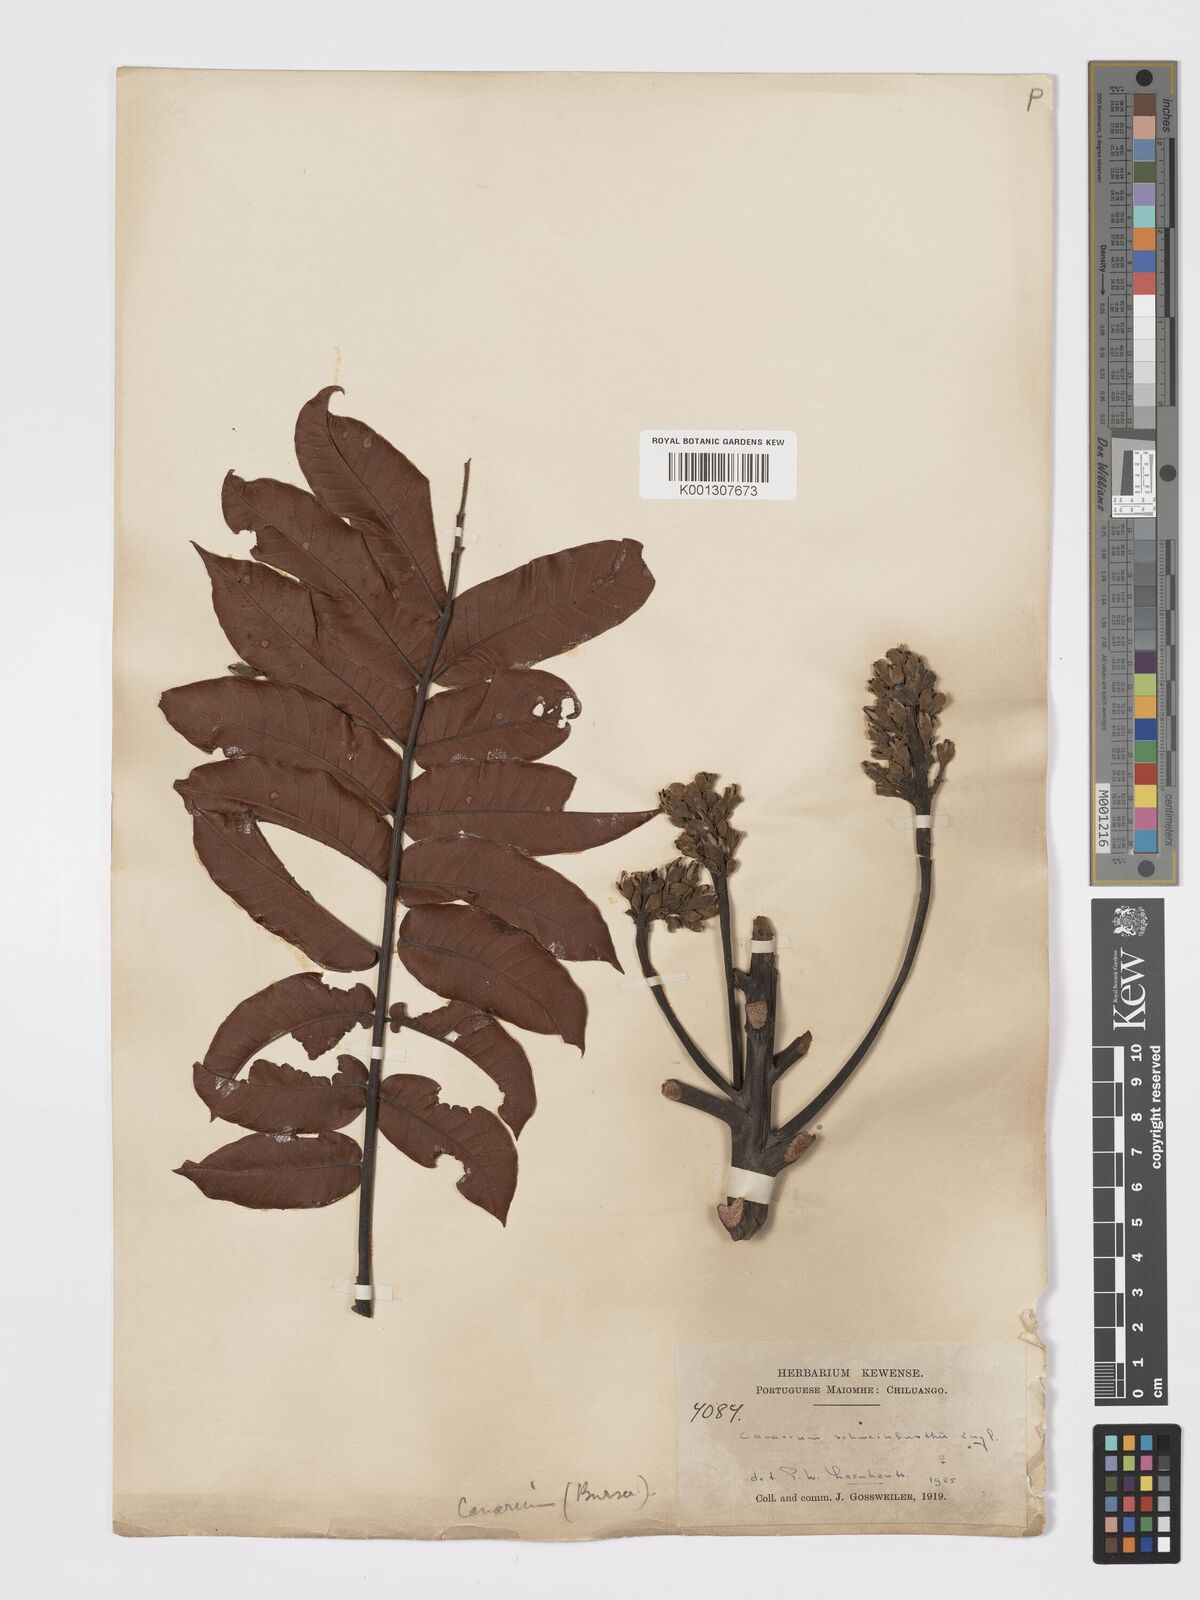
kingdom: Plantae
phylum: Tracheophyta
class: Magnoliopsida
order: Sapindales
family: Burseraceae
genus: Canarium
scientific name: Canarium schweinfurthii
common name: African elemi
